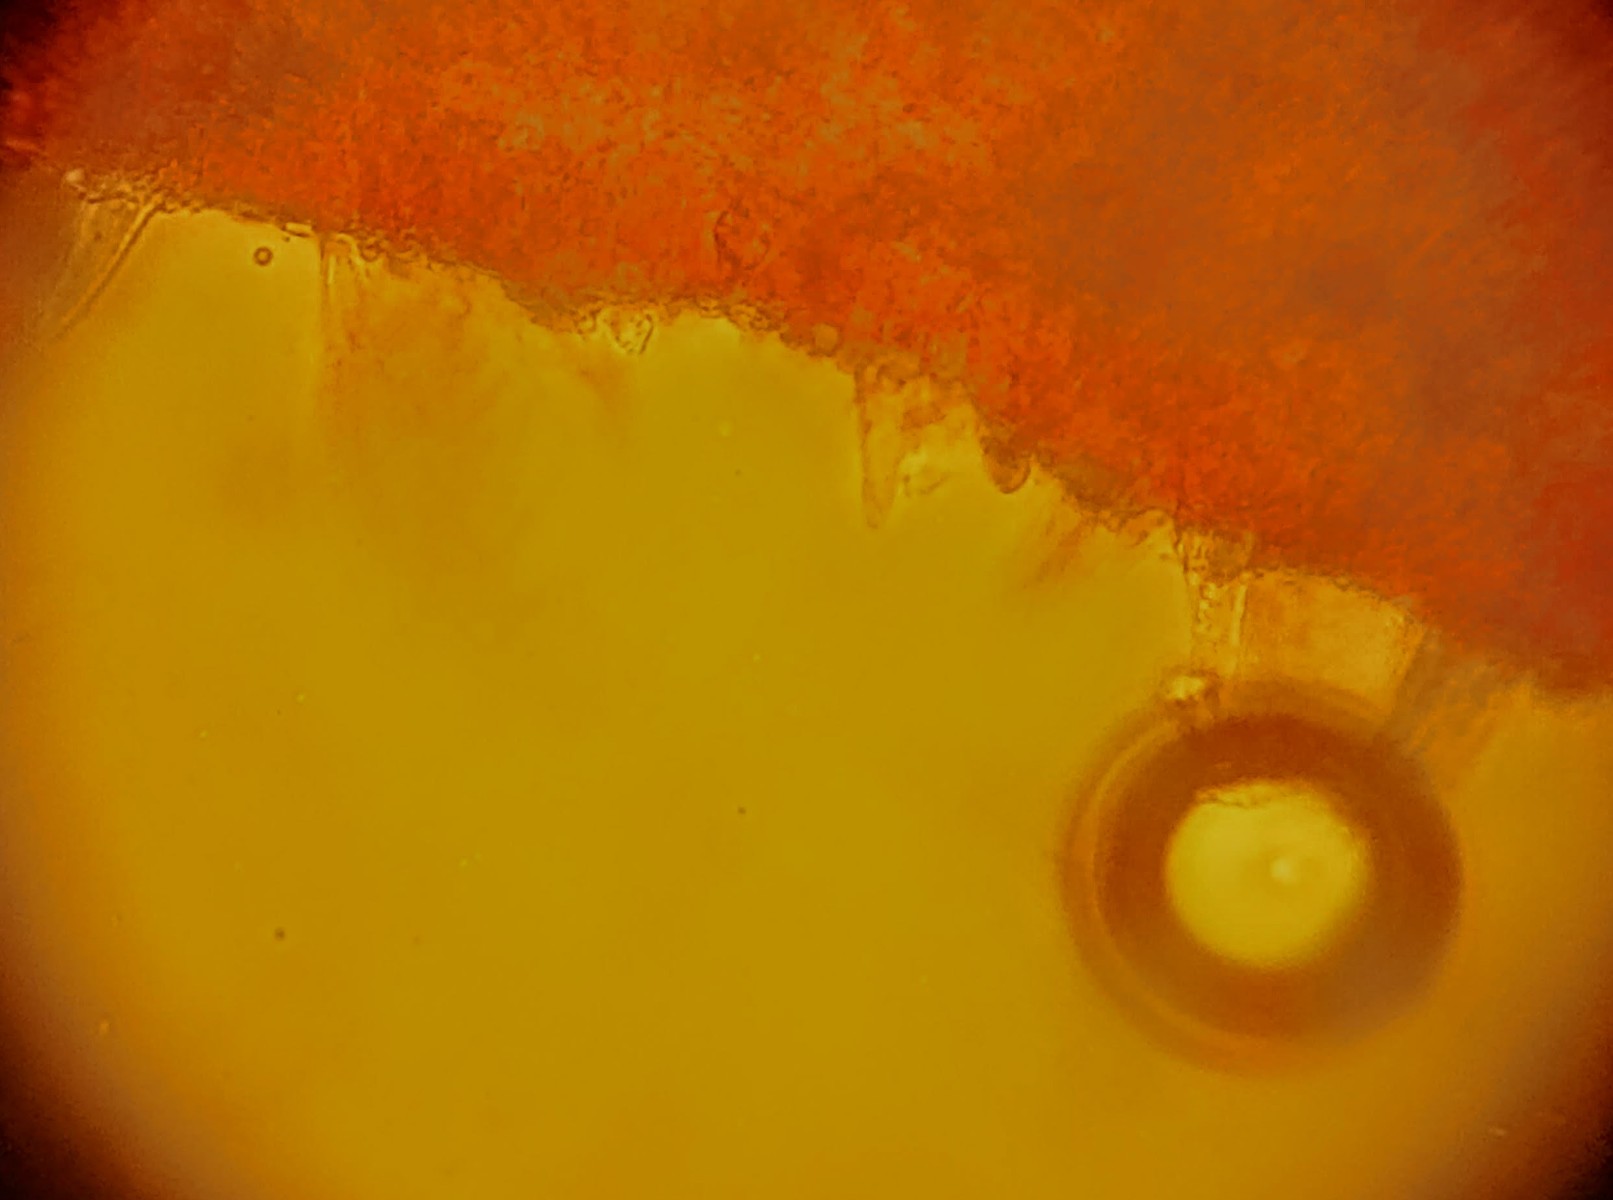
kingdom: Fungi
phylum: Basidiomycota
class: Agaricomycetes
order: Agaricales
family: Physalacriaceae
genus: Strobilurus
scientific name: Strobilurus tenacellus
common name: sommer-koglehat
